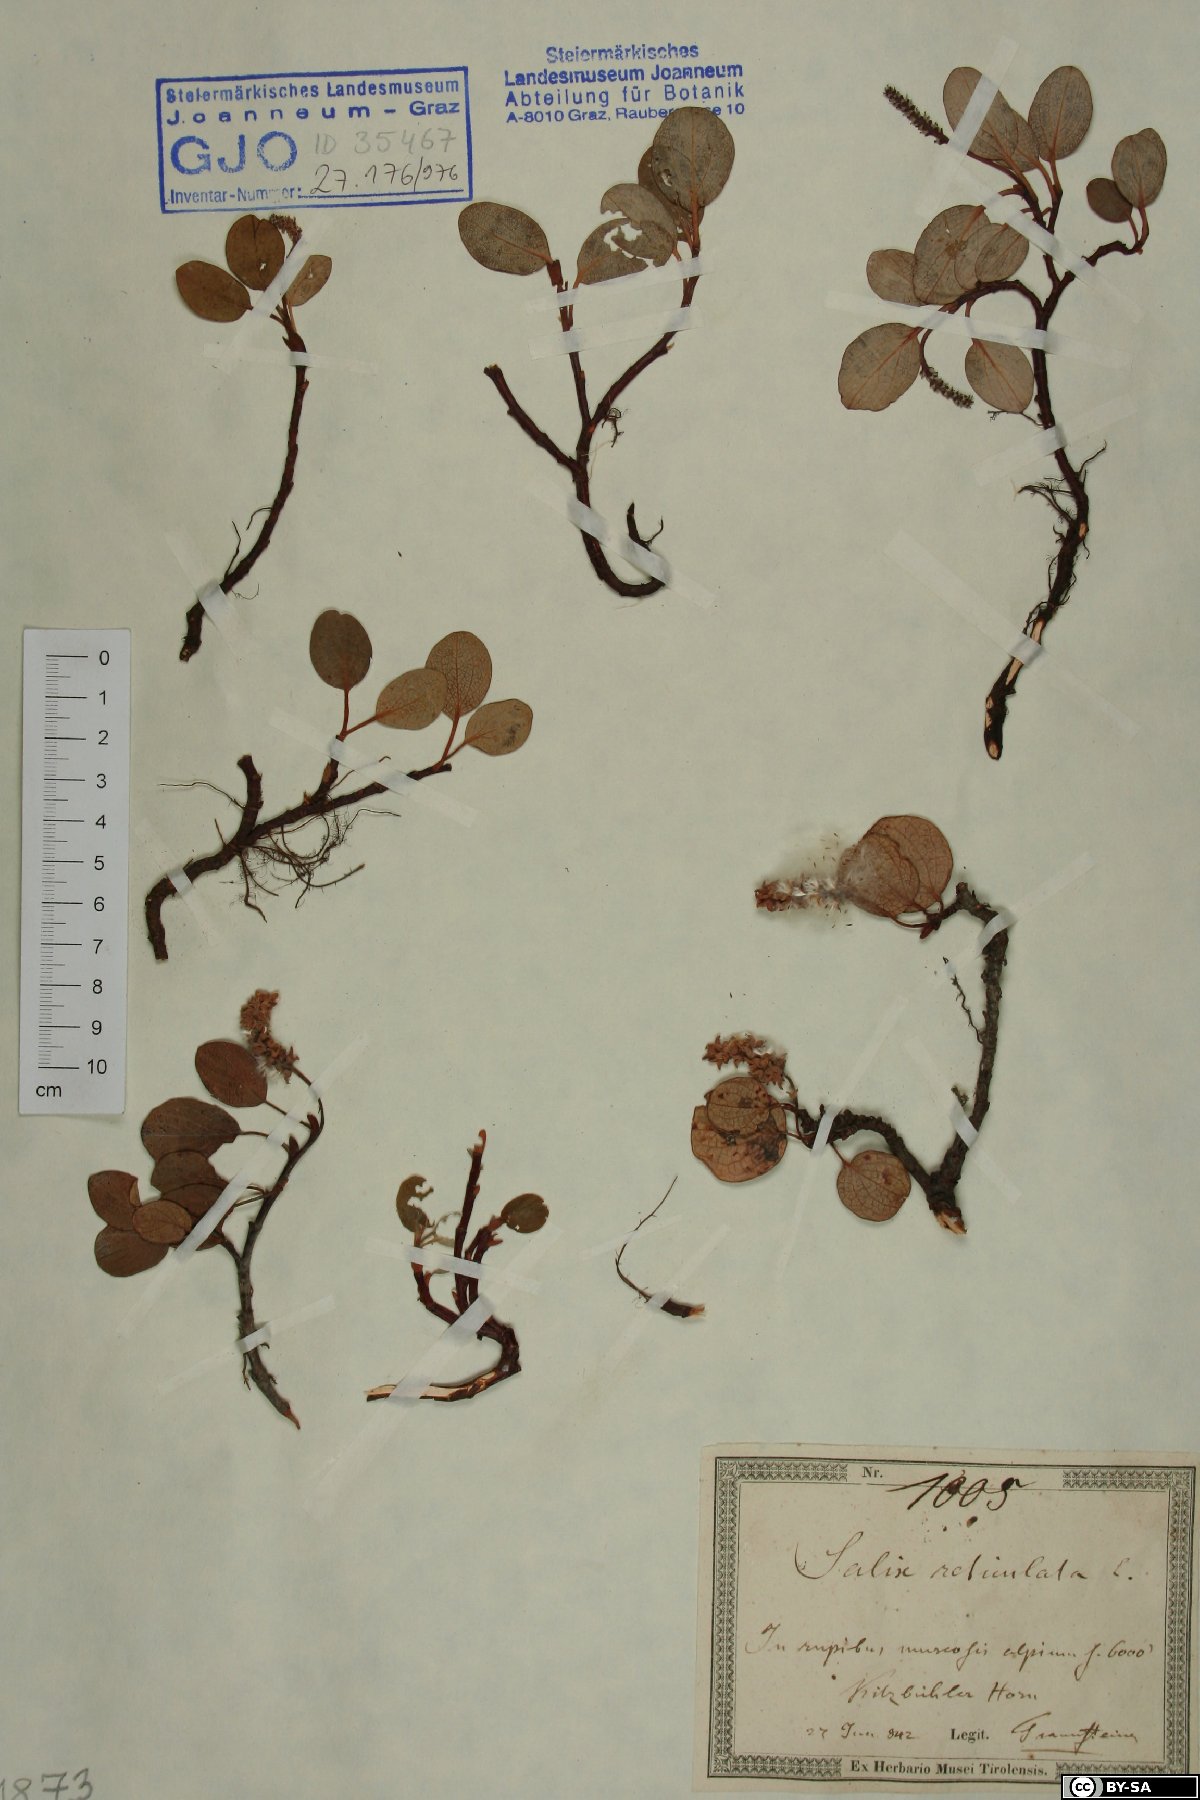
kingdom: Plantae
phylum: Tracheophyta
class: Magnoliopsida
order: Malpighiales
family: Salicaceae
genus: Salix
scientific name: Salix reticulata
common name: Net-leaved willow
